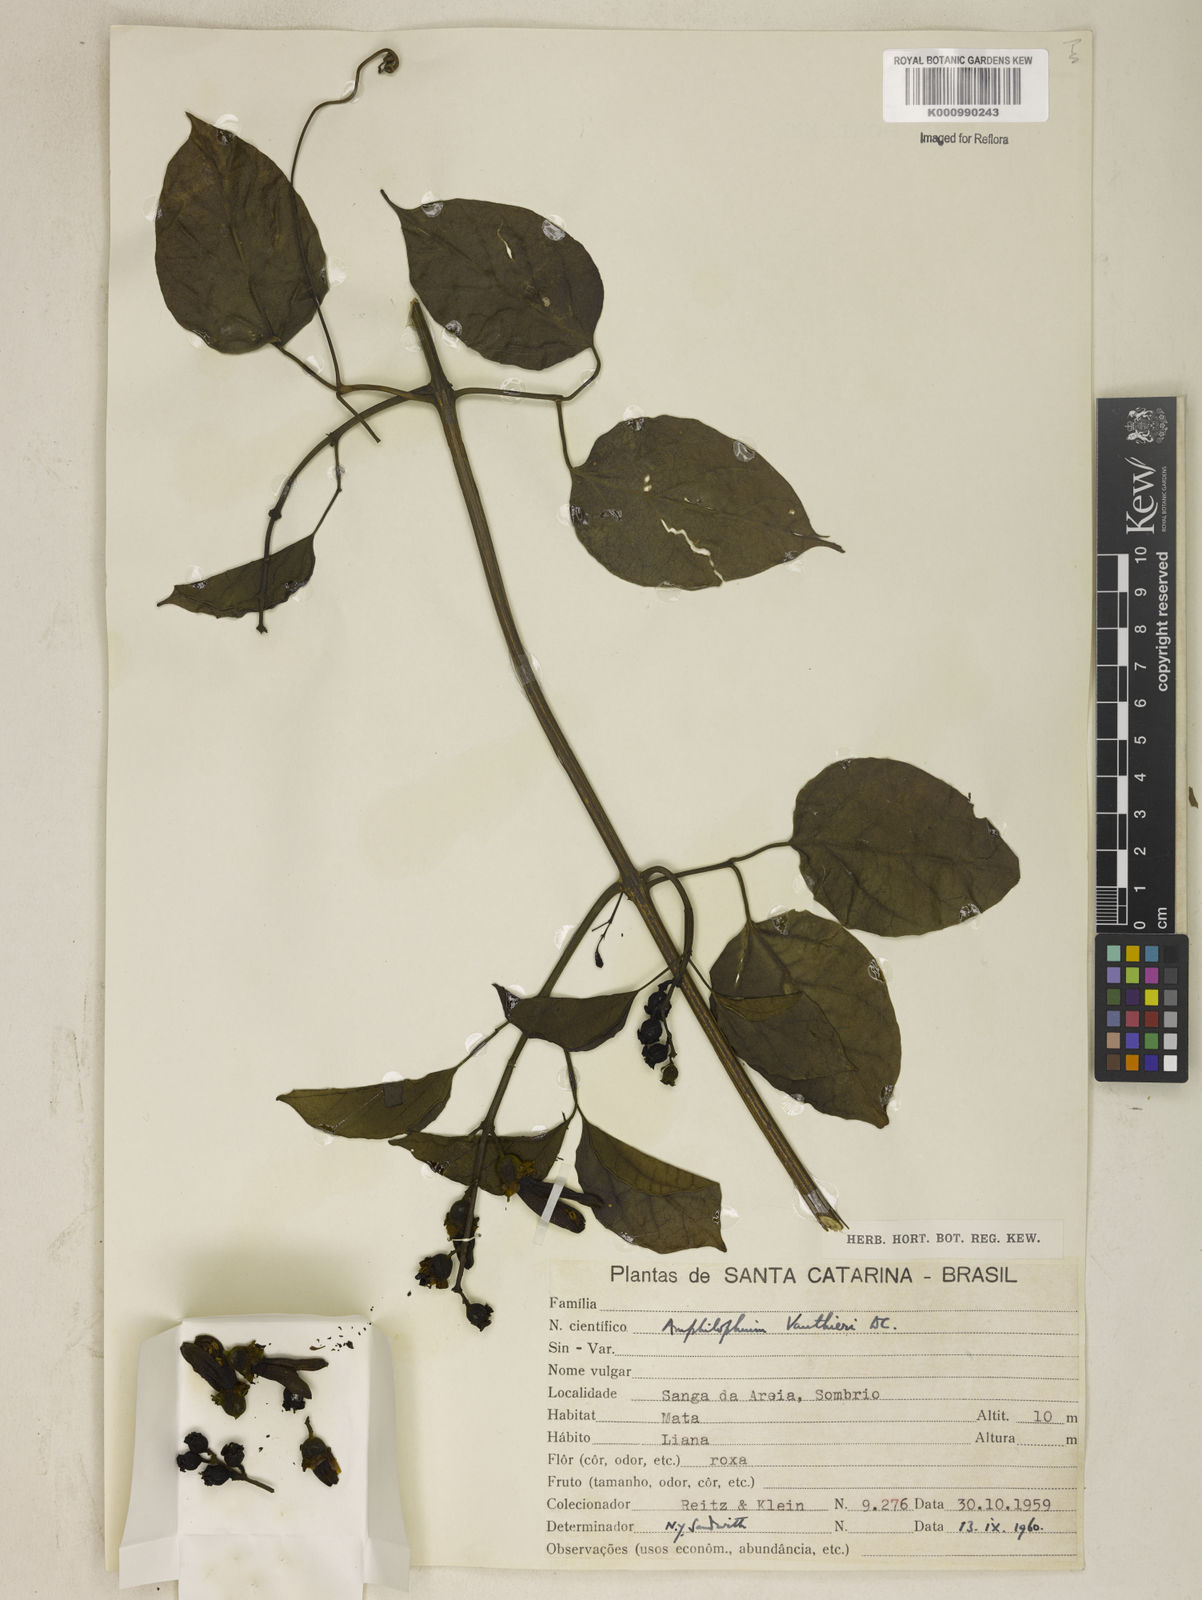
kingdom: Plantae
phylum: Tracheophyta
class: Magnoliopsida
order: Lamiales
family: Bignoniaceae
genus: Amphilophium
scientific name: Amphilophium paniculatum
